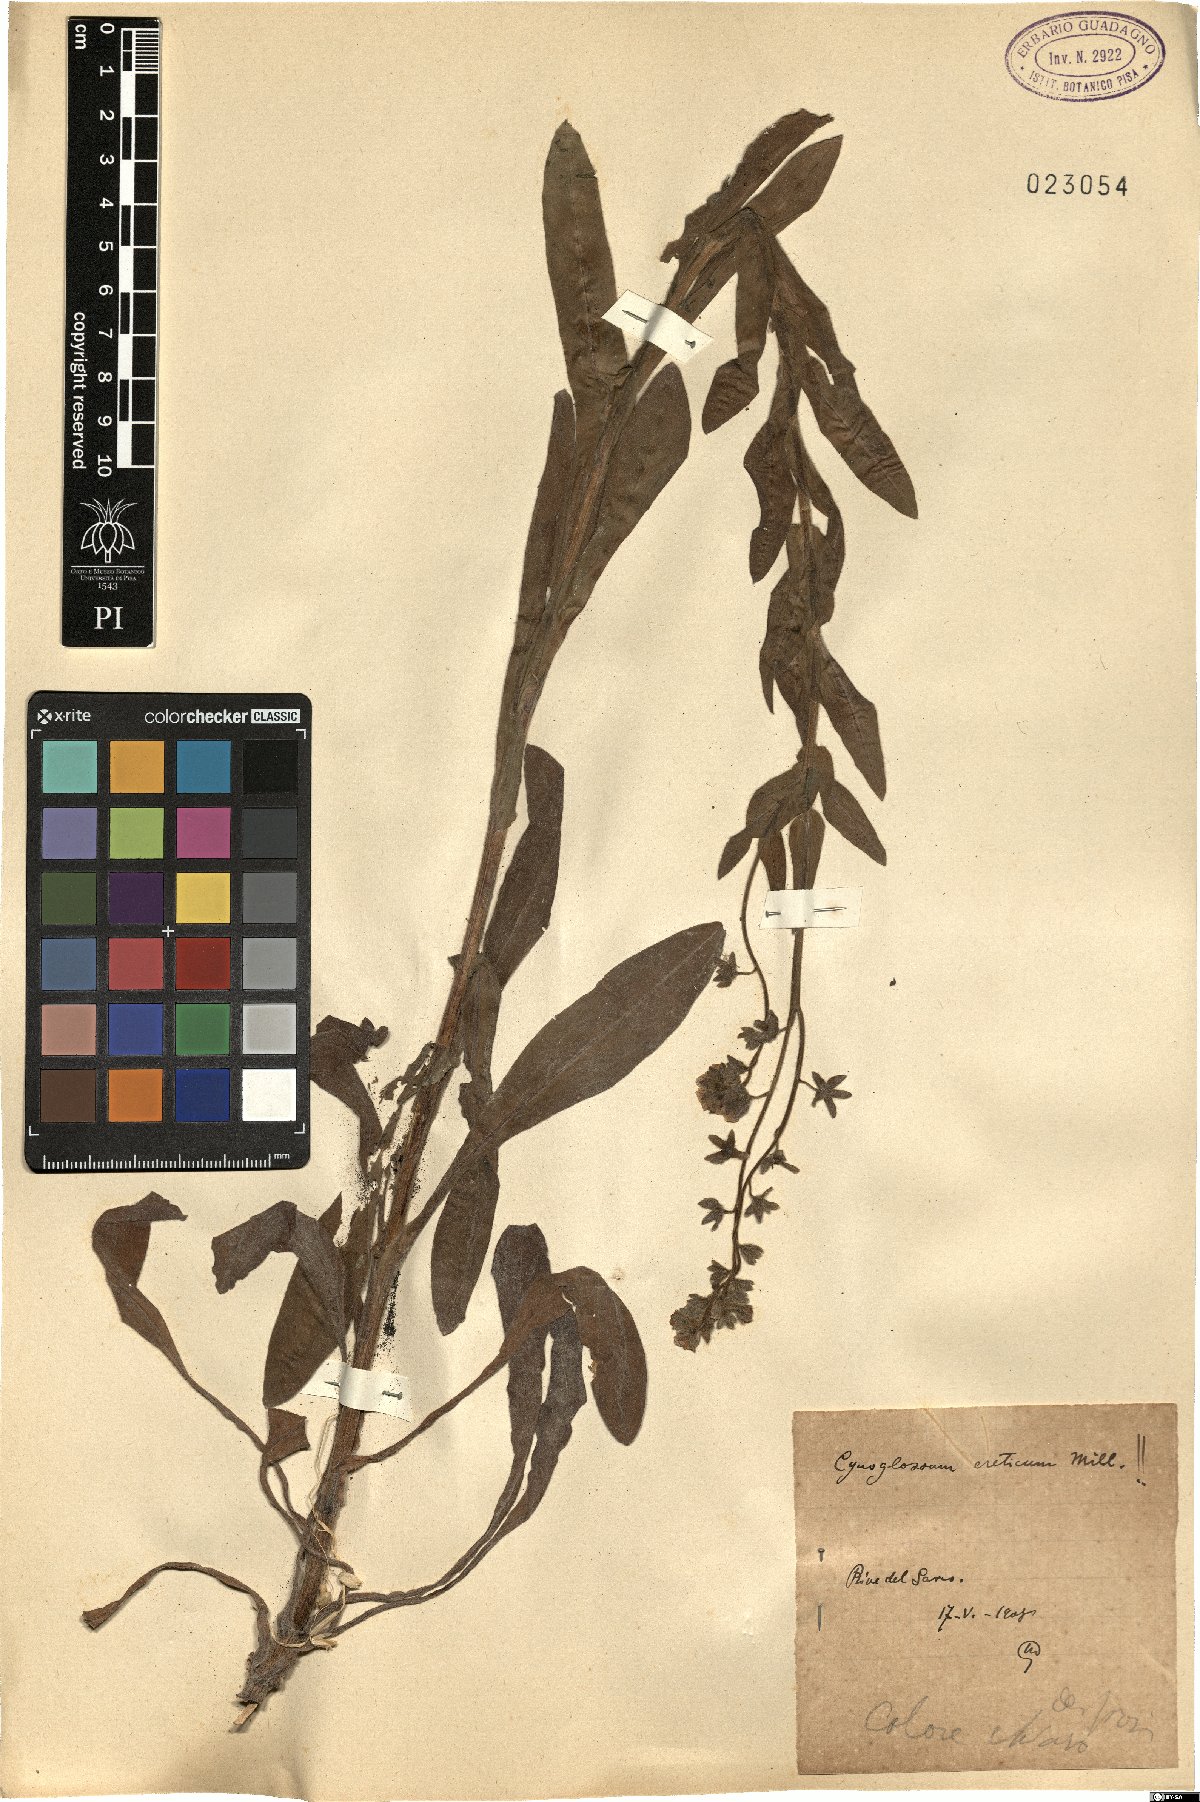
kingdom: Plantae
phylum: Tracheophyta
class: Magnoliopsida
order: Boraginales
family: Boraginaceae
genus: Cynoglossum
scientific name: Cynoglossum creticum
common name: Blue hound's tongue
